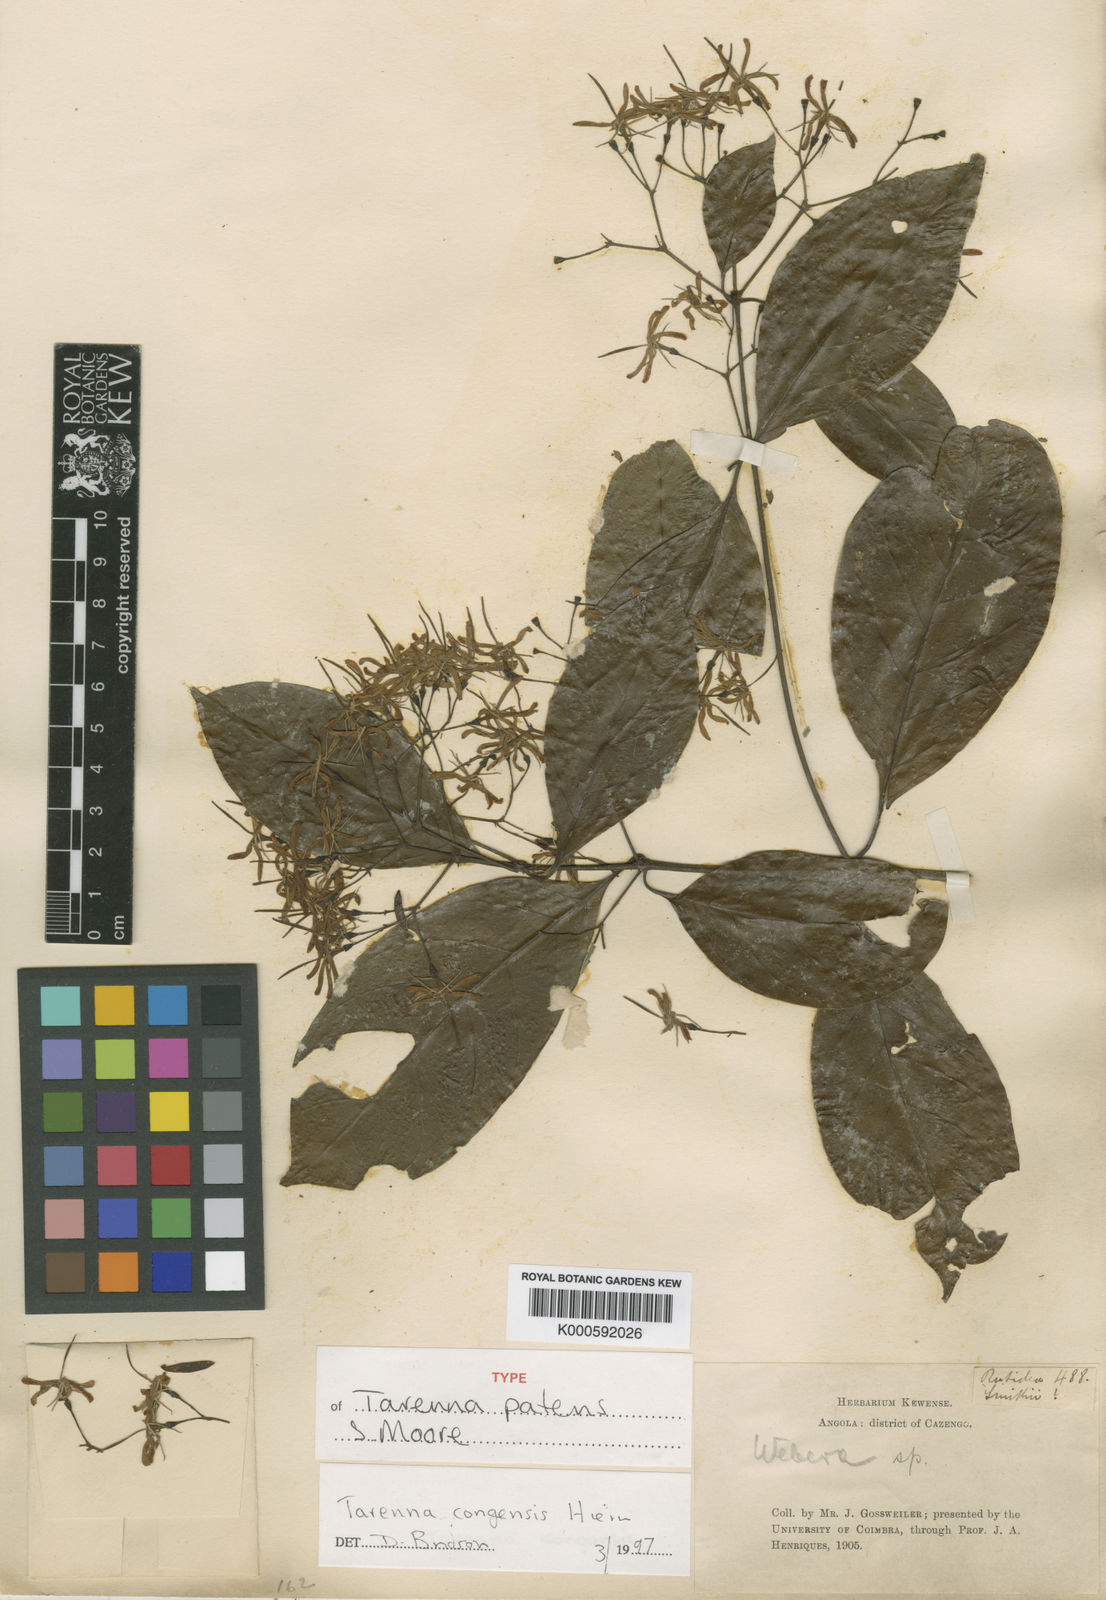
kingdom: Plantae
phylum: Tracheophyta
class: Magnoliopsida
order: Gentianales
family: Rubiaceae
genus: Tarenna
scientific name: Tarenna congensis
